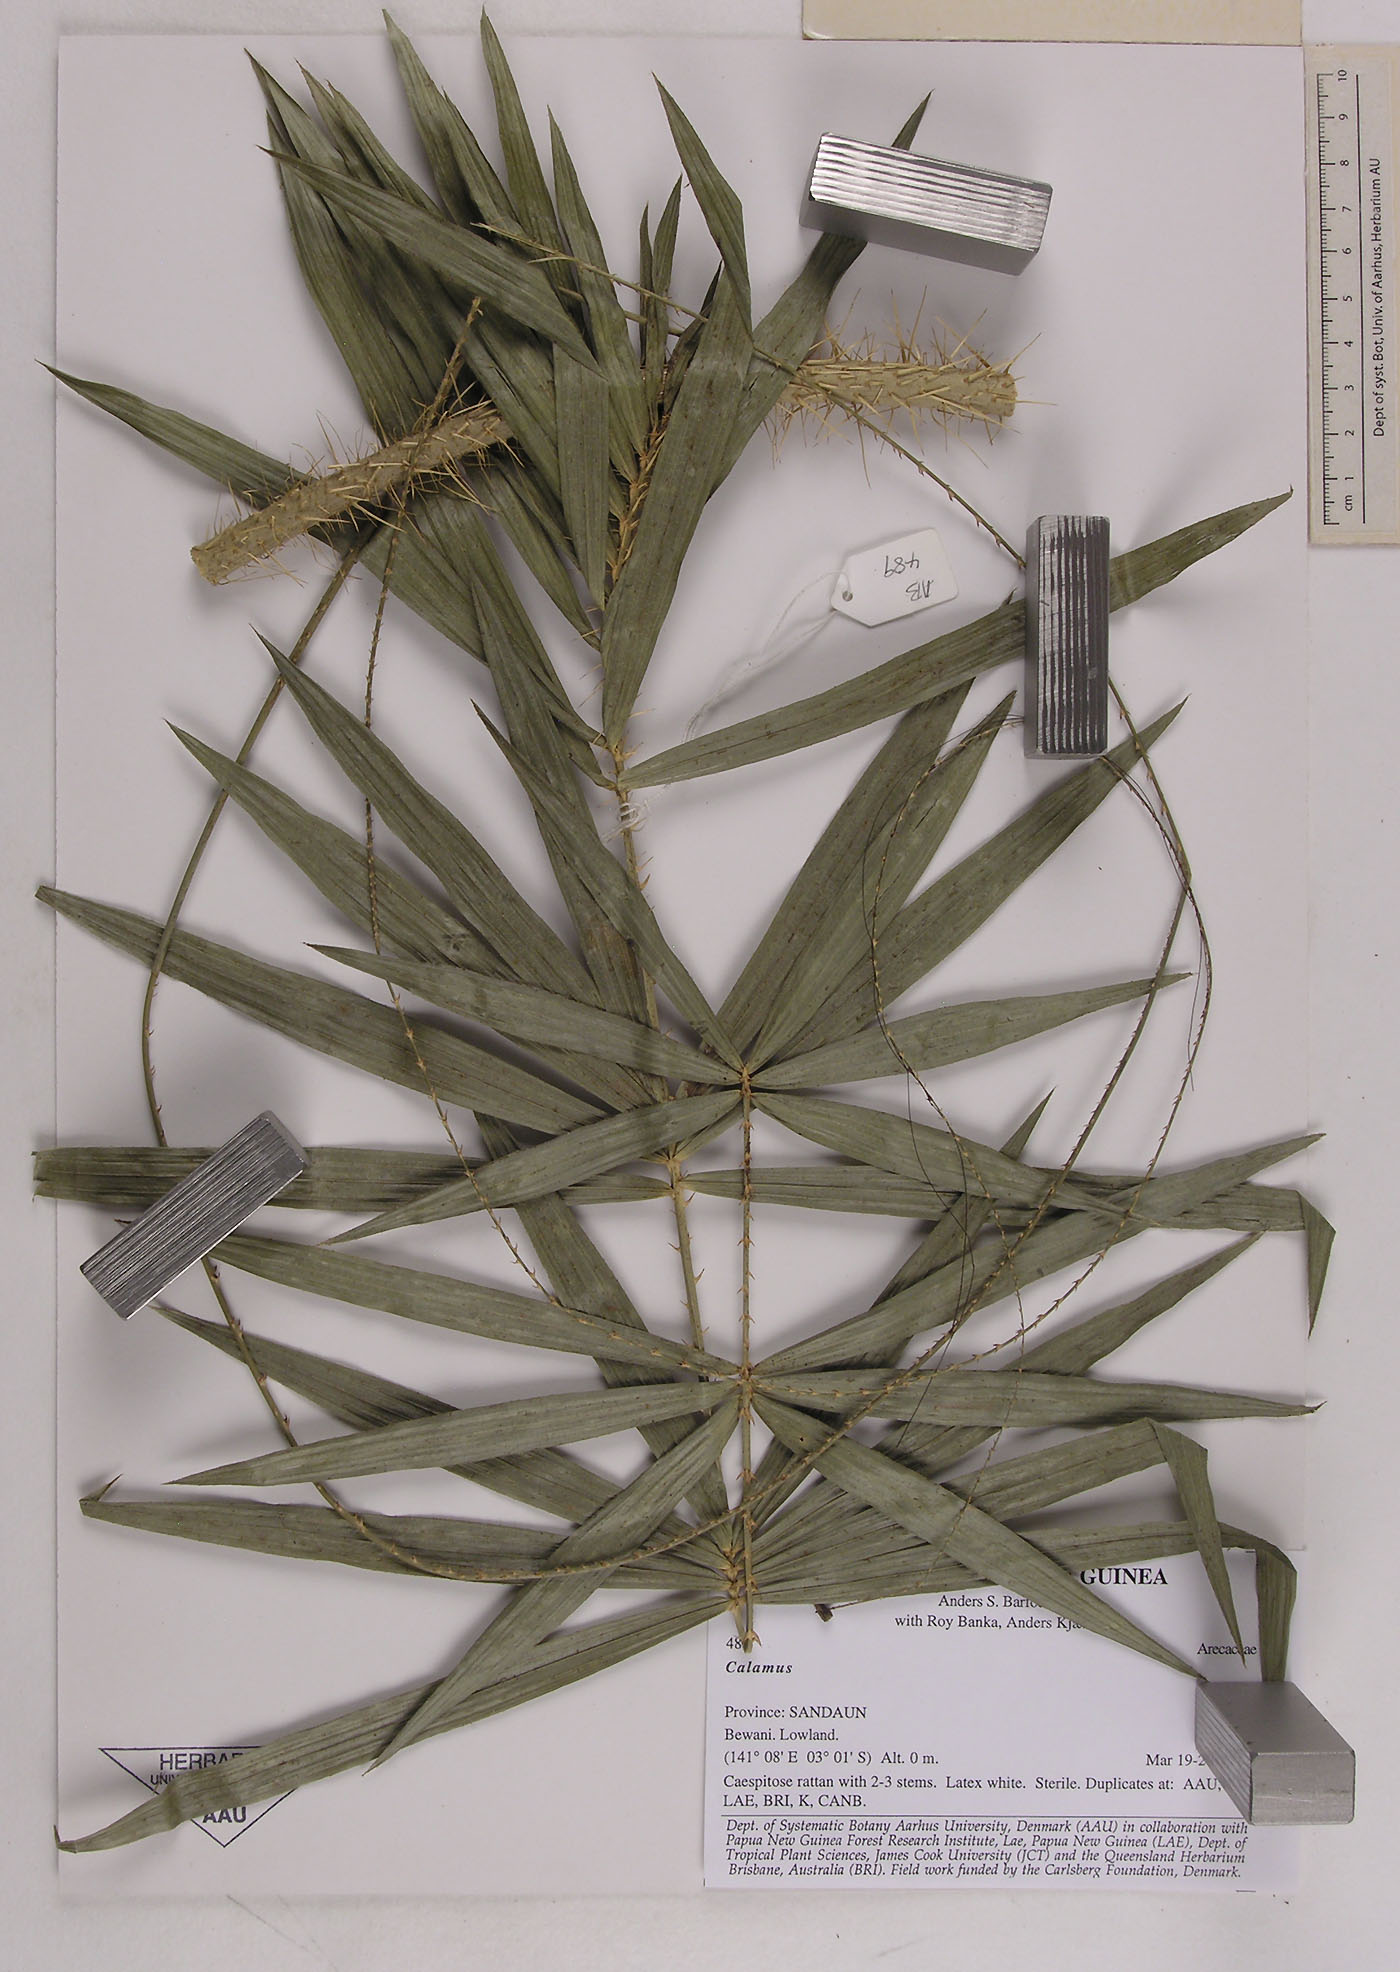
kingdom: Plantae
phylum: Tracheophyta
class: Liliopsida
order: Arecales
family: Arecaceae
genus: Calamus
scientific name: Calamus
